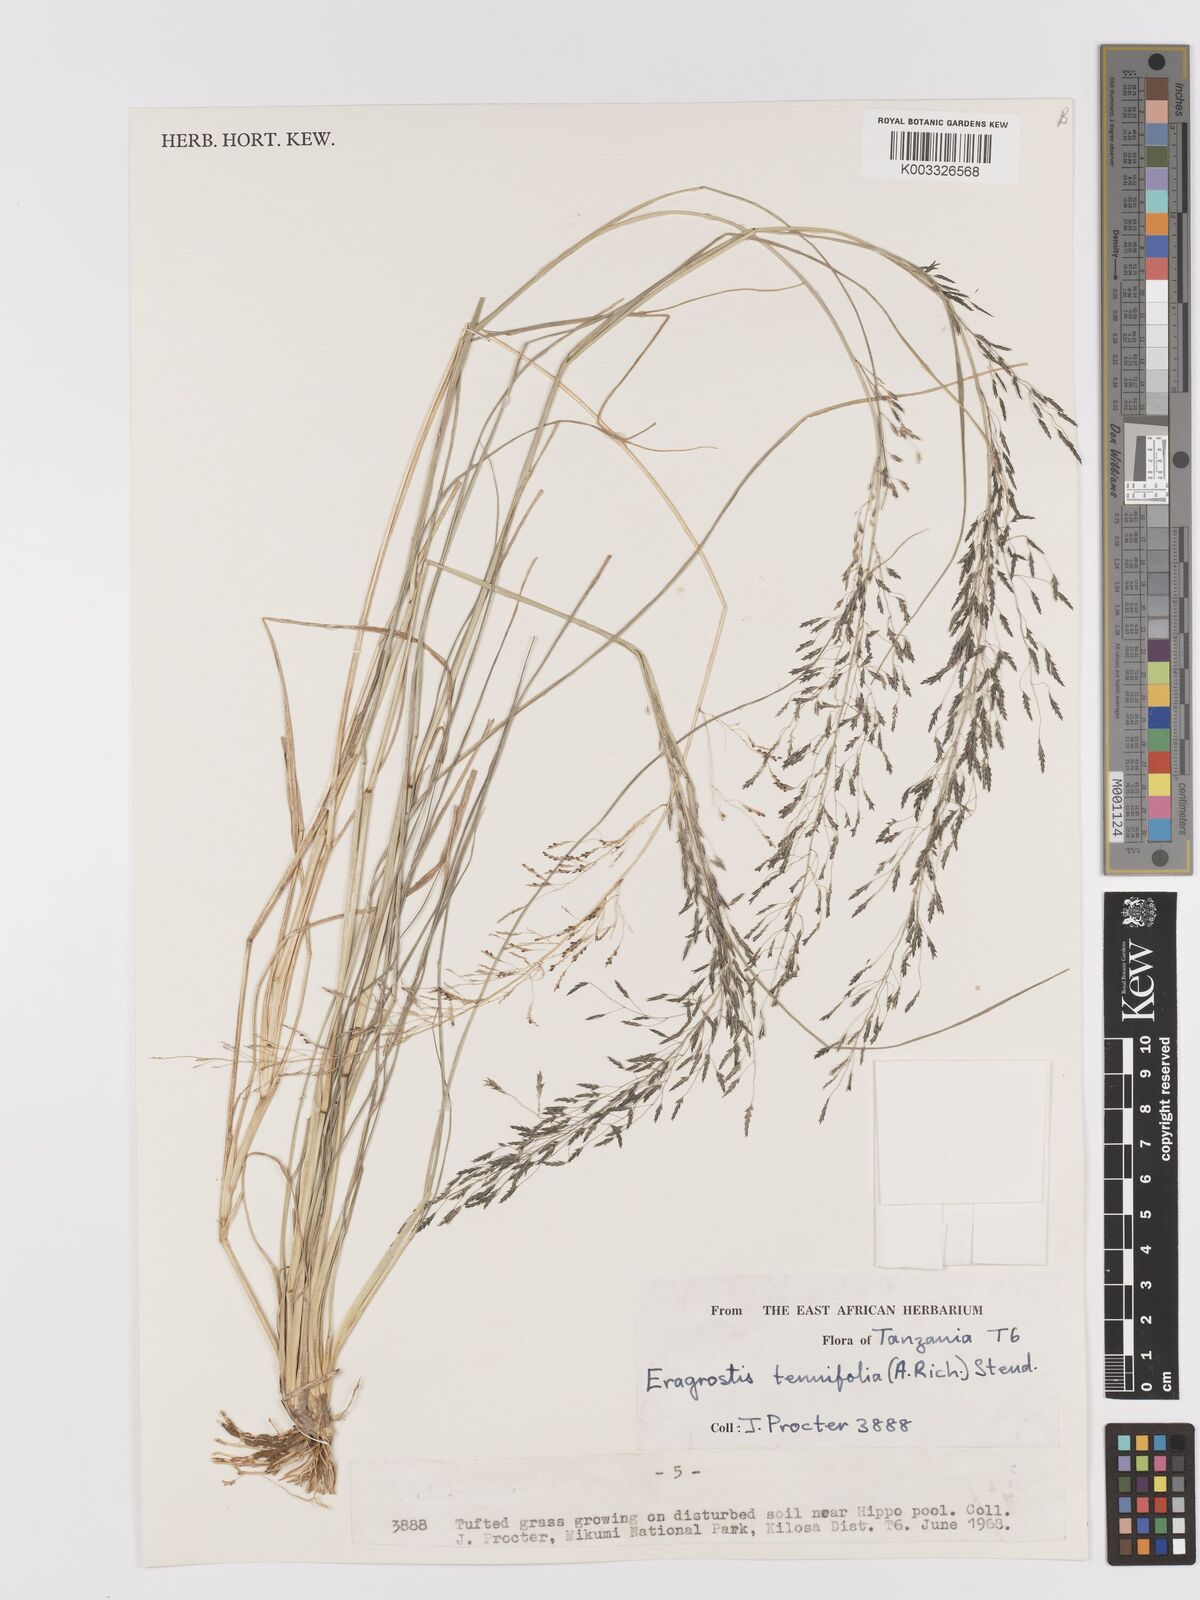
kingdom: Plantae
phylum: Tracheophyta
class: Liliopsida
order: Poales
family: Poaceae
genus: Eragrostis
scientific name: Eragrostis tenuifolia
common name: Elastic grass
